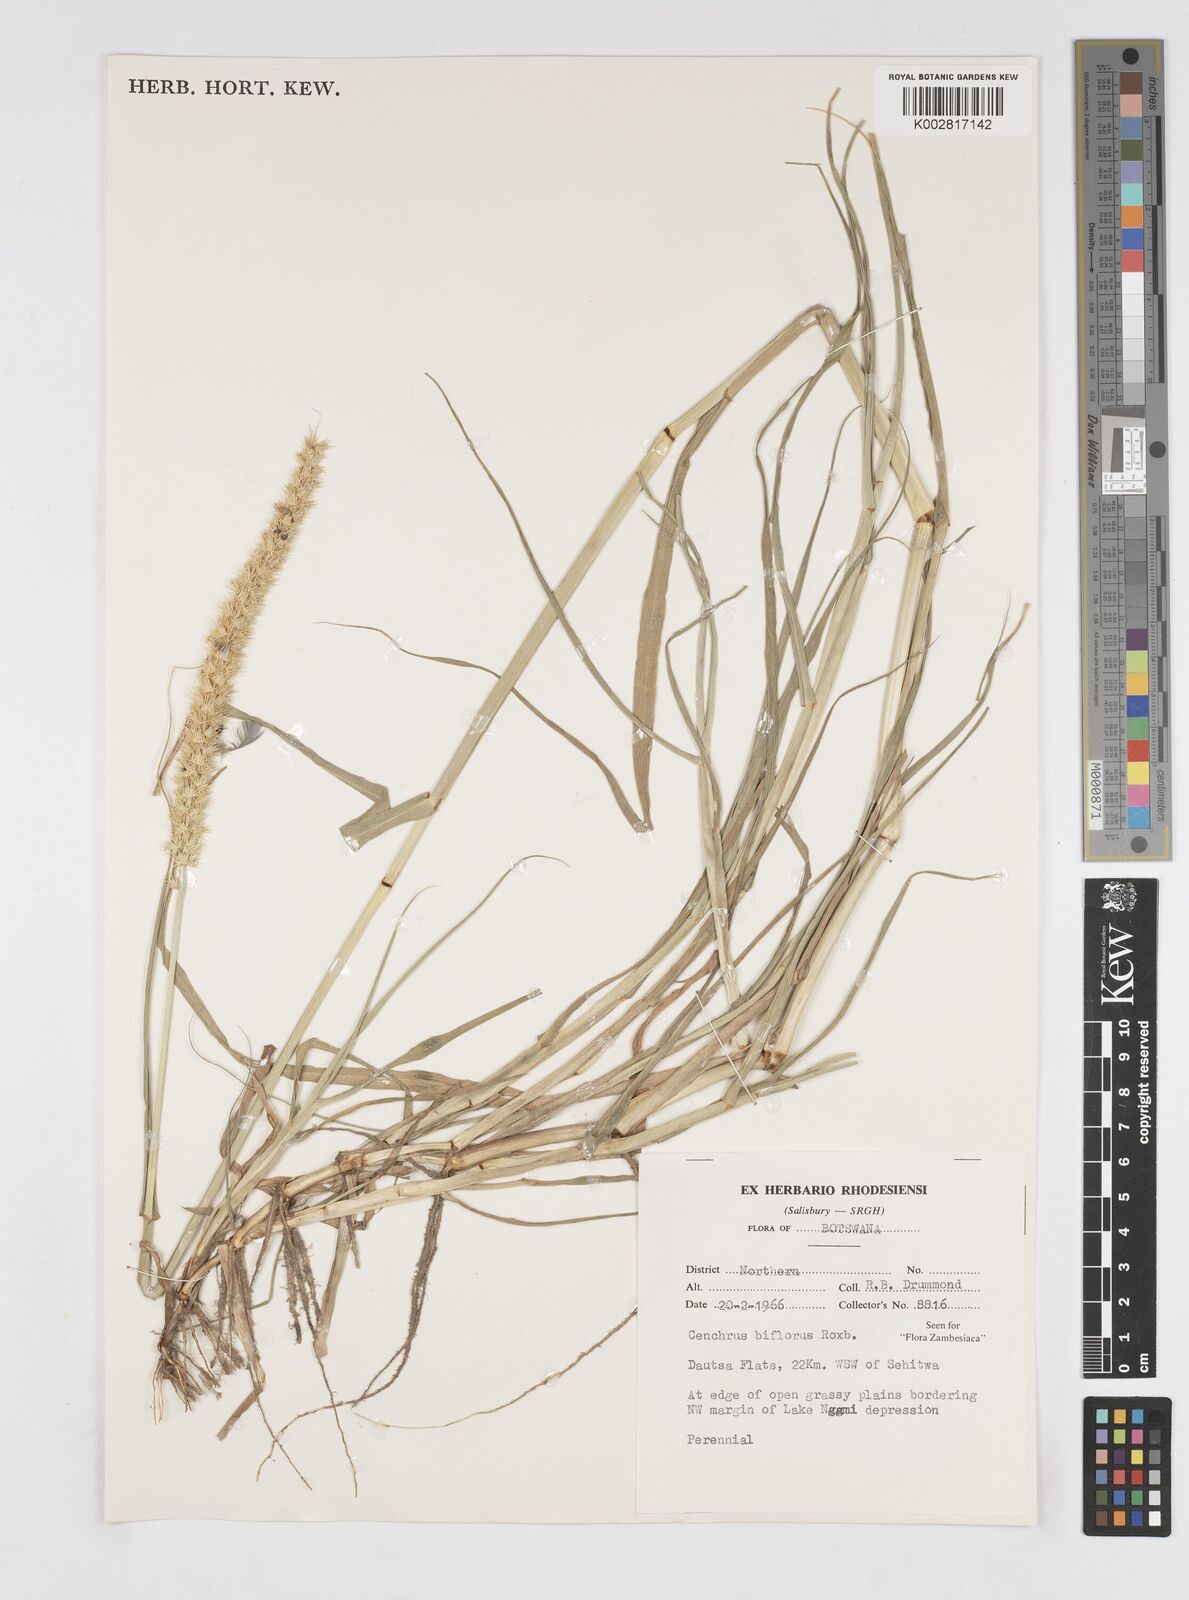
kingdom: Plantae
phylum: Tracheophyta
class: Liliopsida
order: Poales
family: Poaceae
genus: Cenchrus
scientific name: Cenchrus biflorus
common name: Indian sandbur
